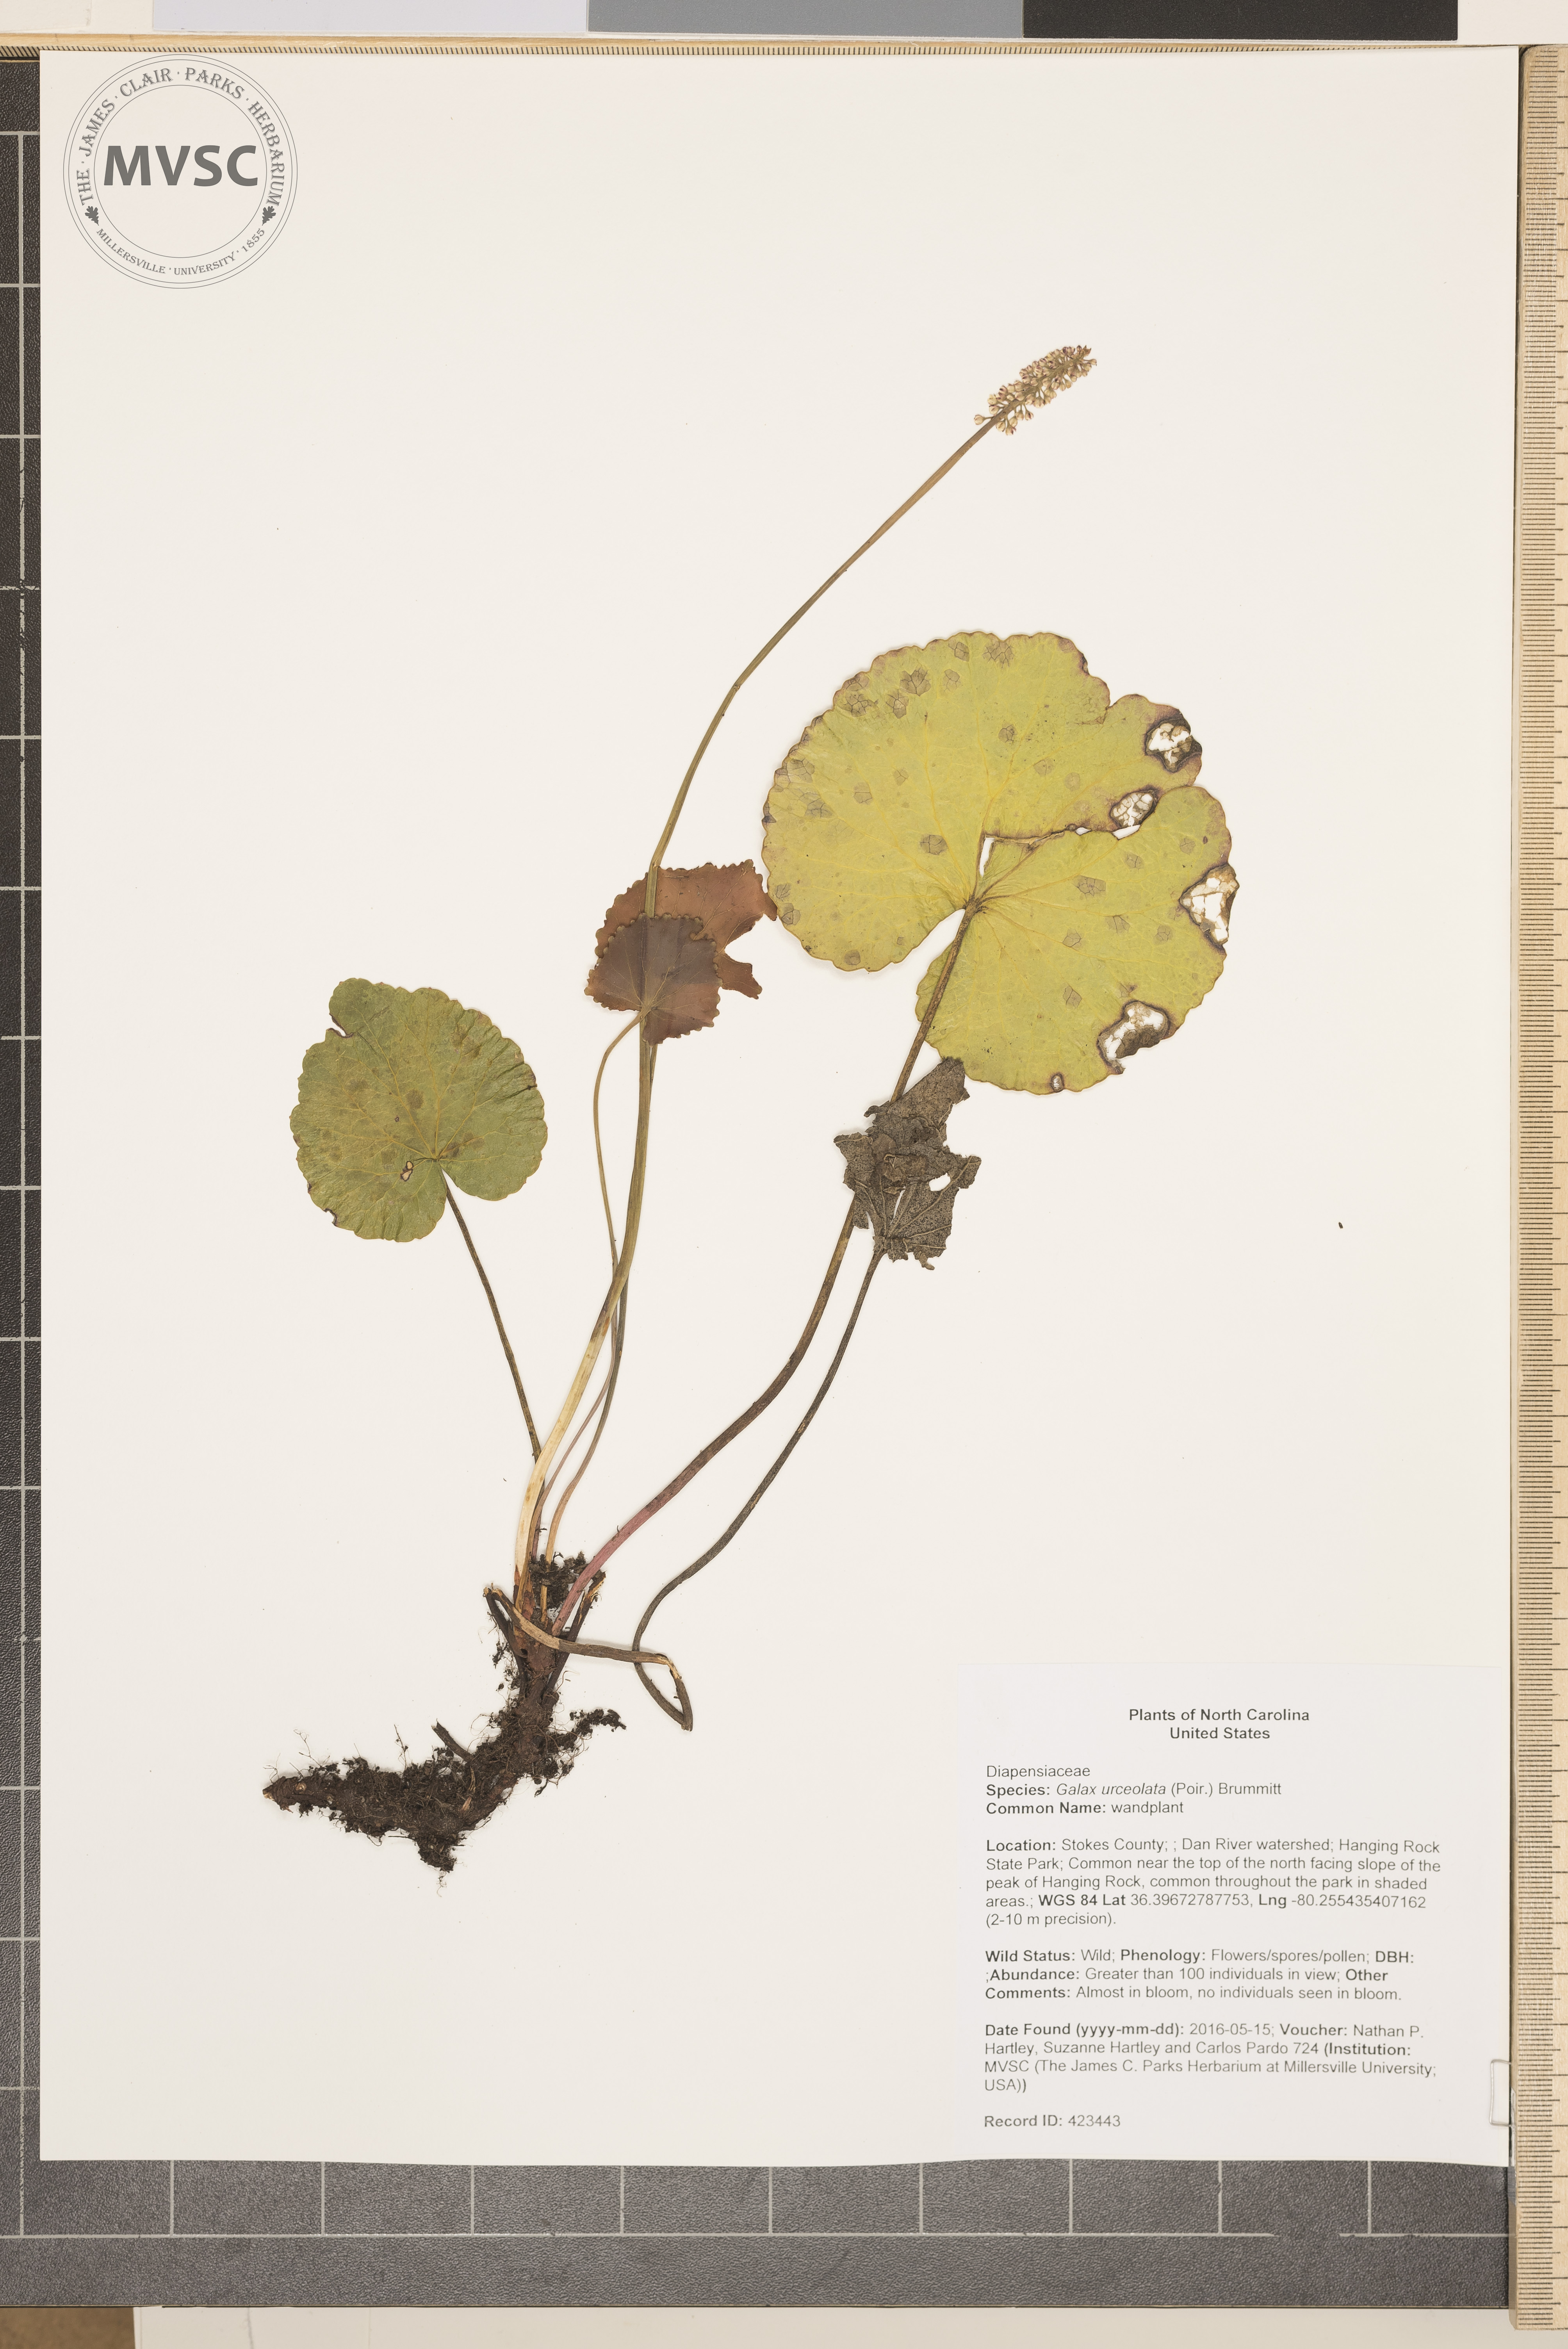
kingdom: Plantae
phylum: Tracheophyta
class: Magnoliopsida
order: Ericales
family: Diapensiaceae
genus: Galax
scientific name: Galax urceolata
